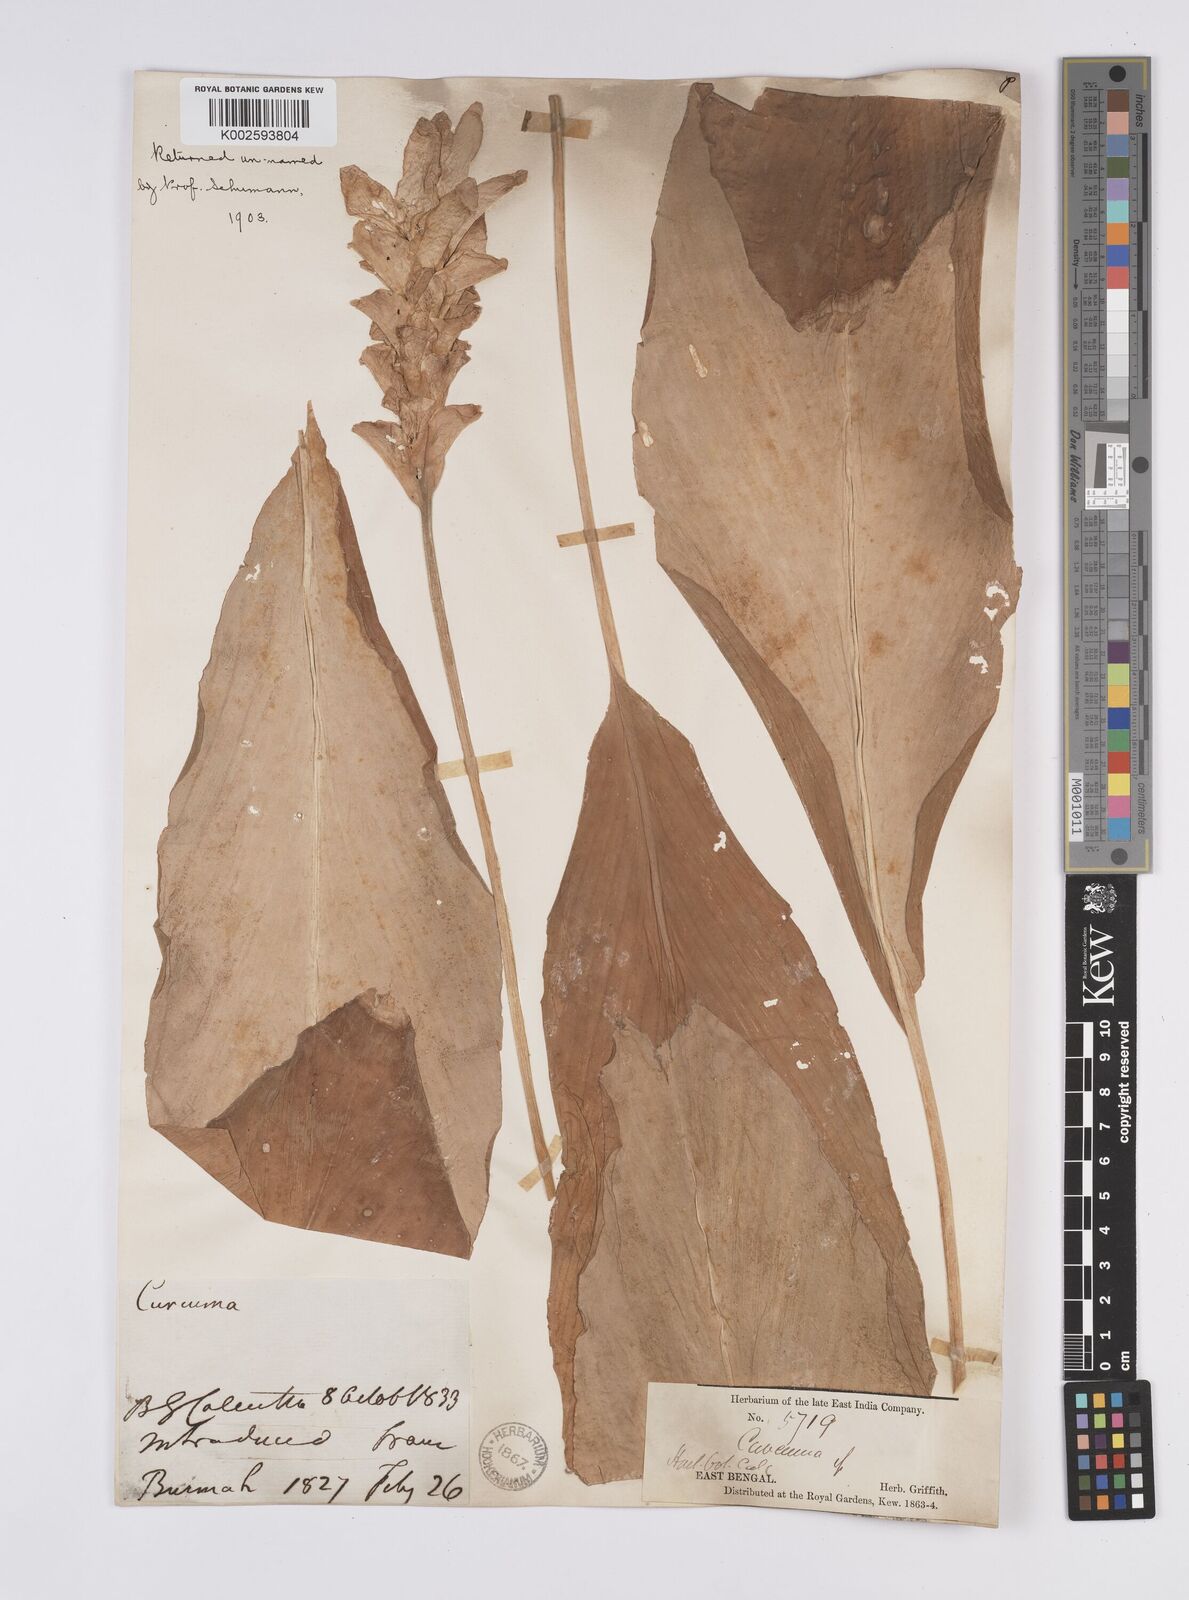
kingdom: Plantae
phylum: Tracheophyta
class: Liliopsida
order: Zingiberales
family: Zingiberaceae
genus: Curcuma
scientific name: Curcuma
